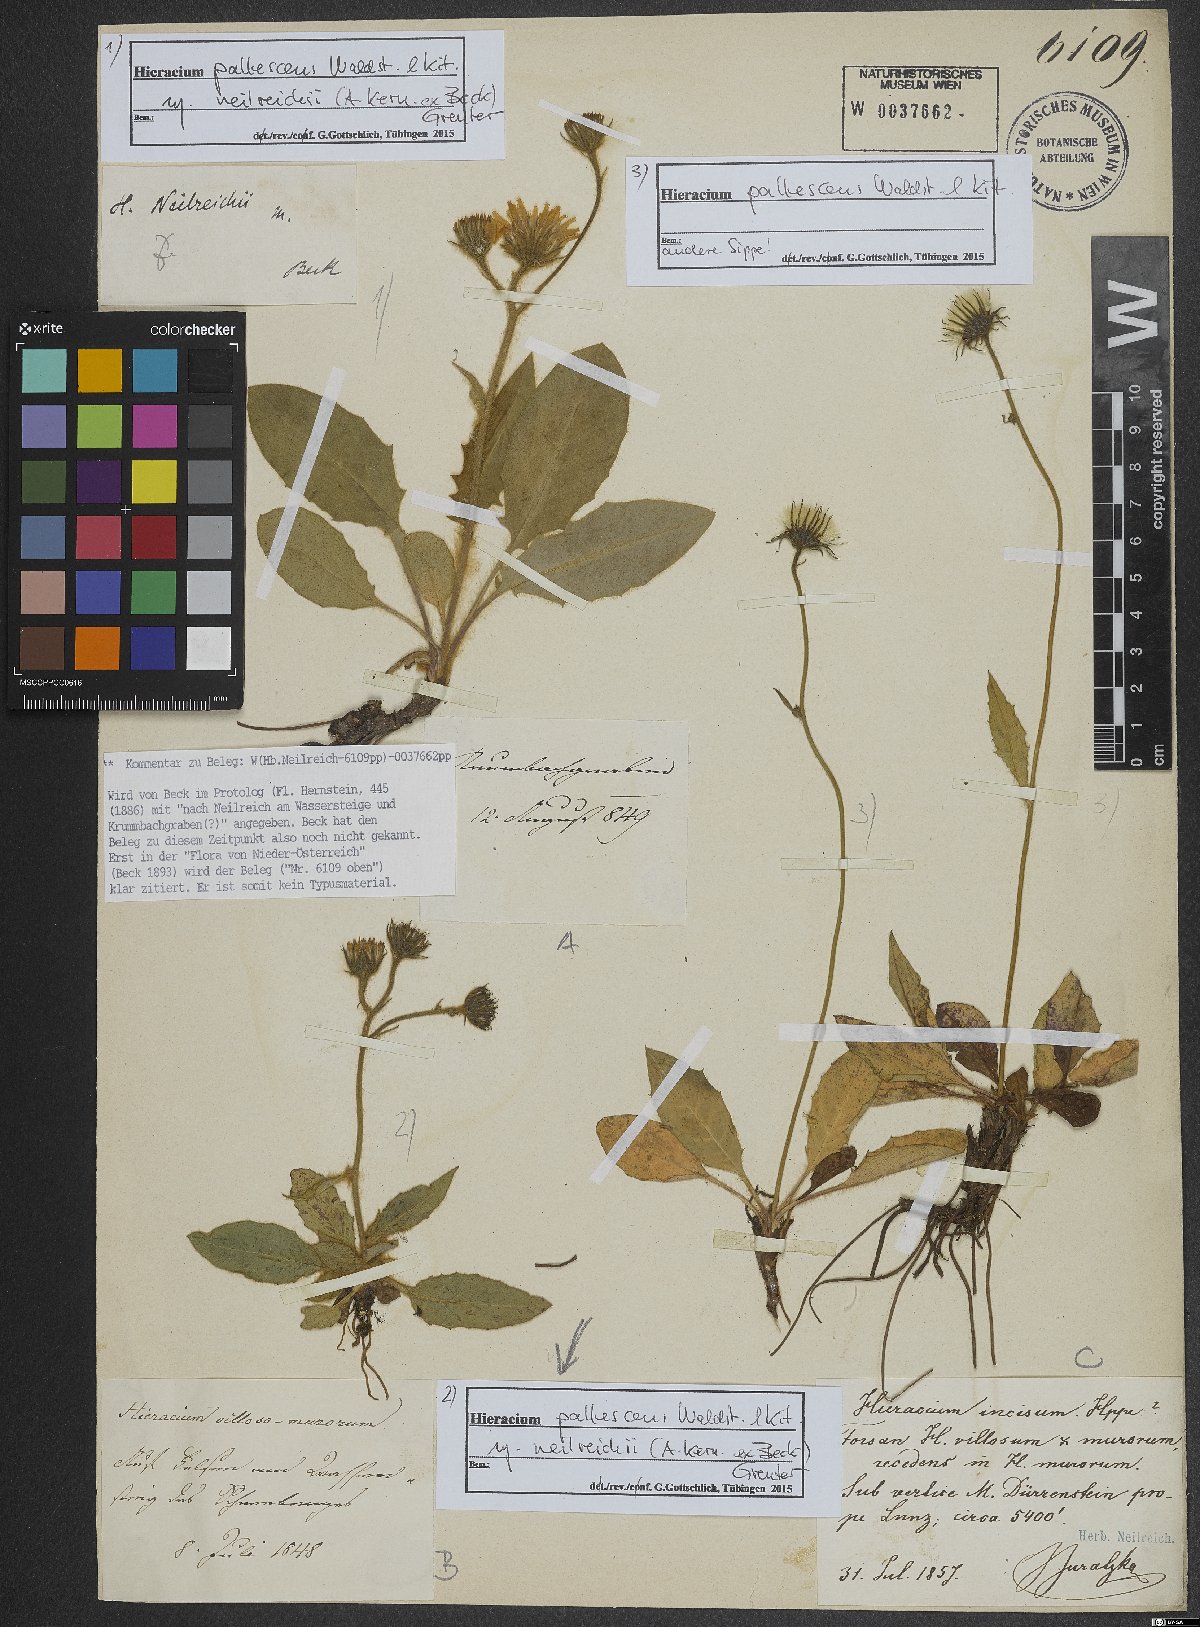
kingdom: Plantae
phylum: Tracheophyta
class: Magnoliopsida
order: Asterales
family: Asteraceae
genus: Hieracium
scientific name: Hieracium pallescens
